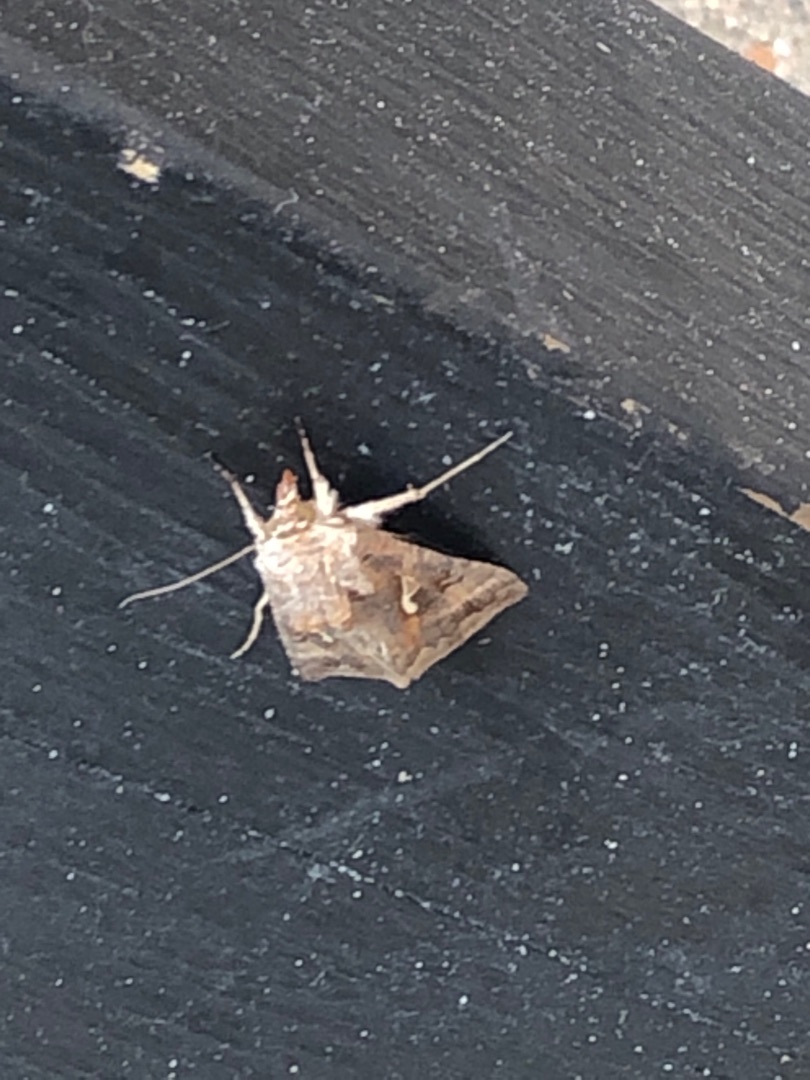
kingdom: Animalia
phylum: Arthropoda
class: Insecta
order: Lepidoptera
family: Noctuidae
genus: Autographa
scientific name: Autographa gamma
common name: Gammaugle
